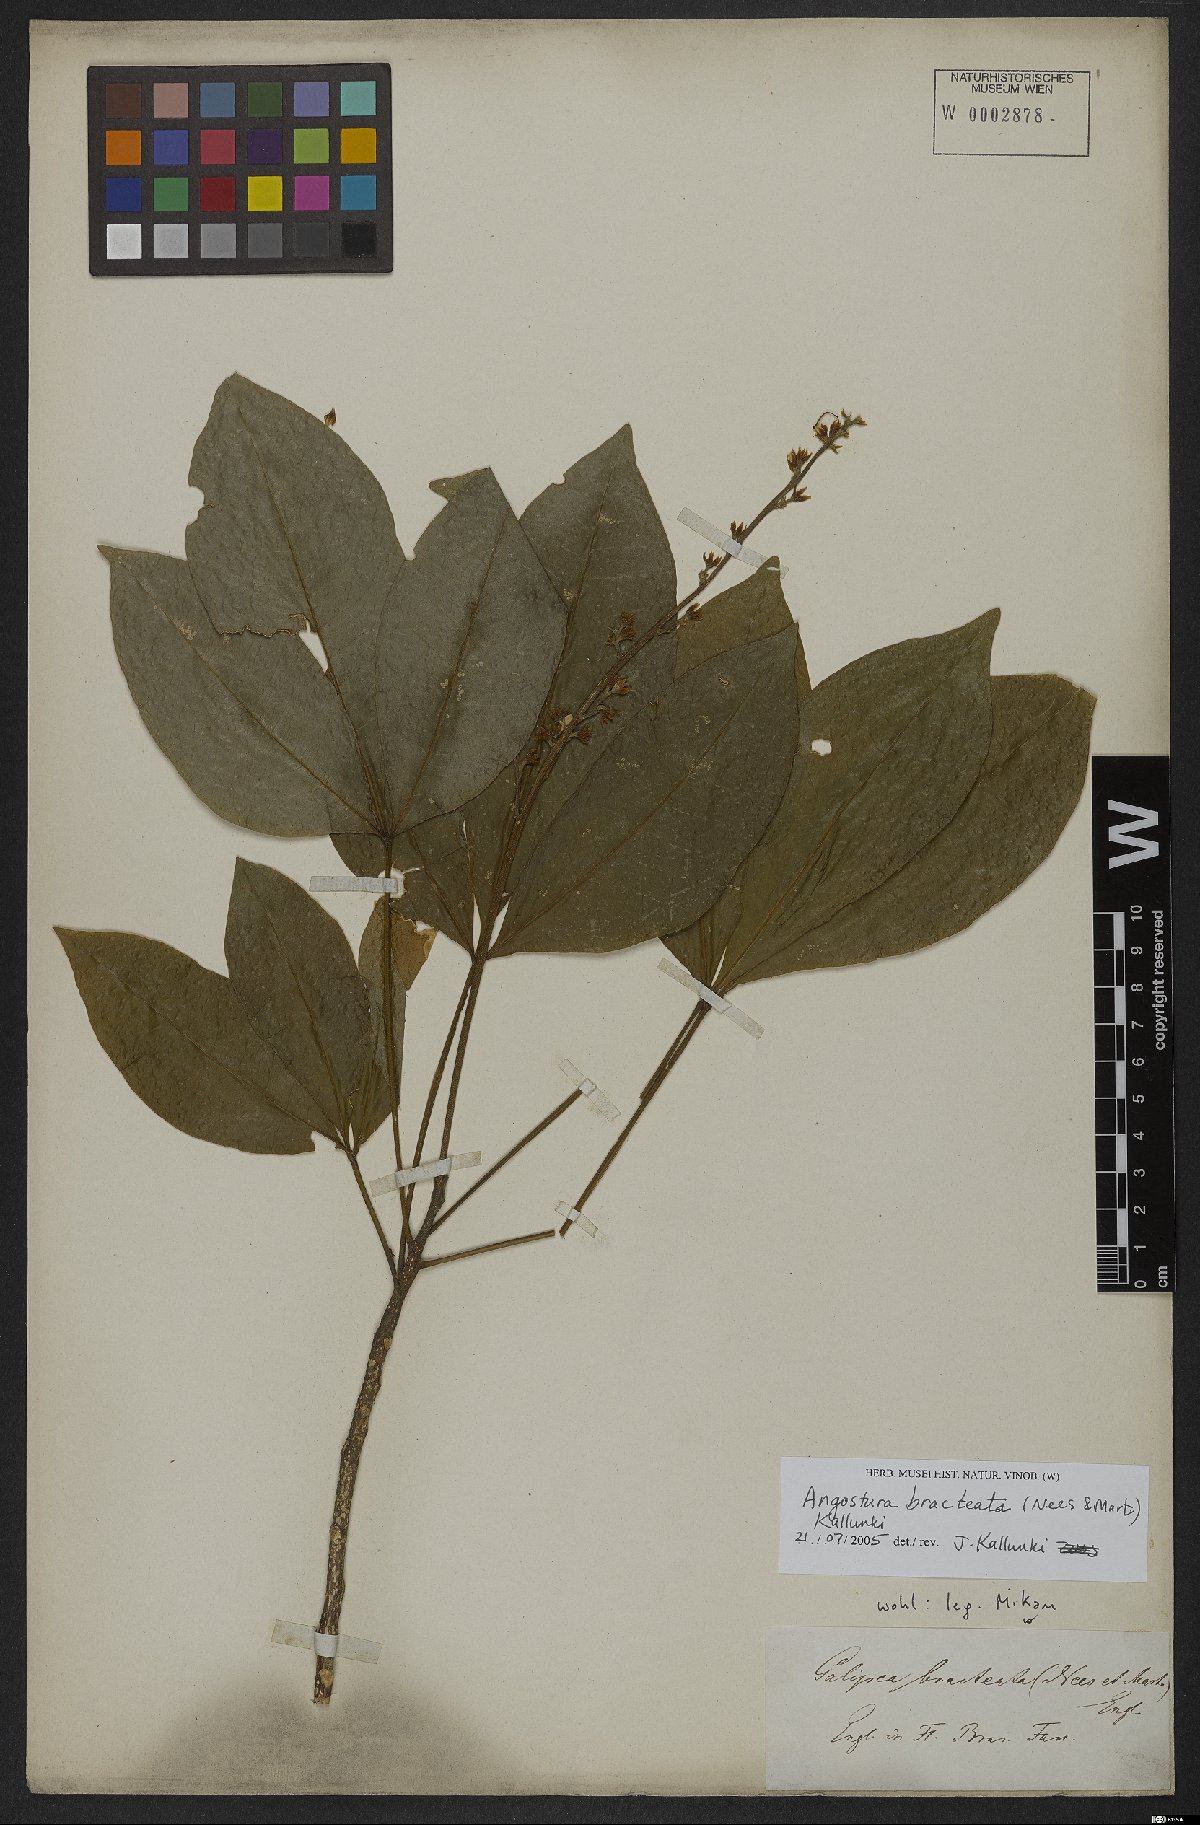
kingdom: Plantae
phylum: Tracheophyta
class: Magnoliopsida
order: Sapindales
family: Rutaceae
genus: Angostura
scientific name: Angostura bracteata
